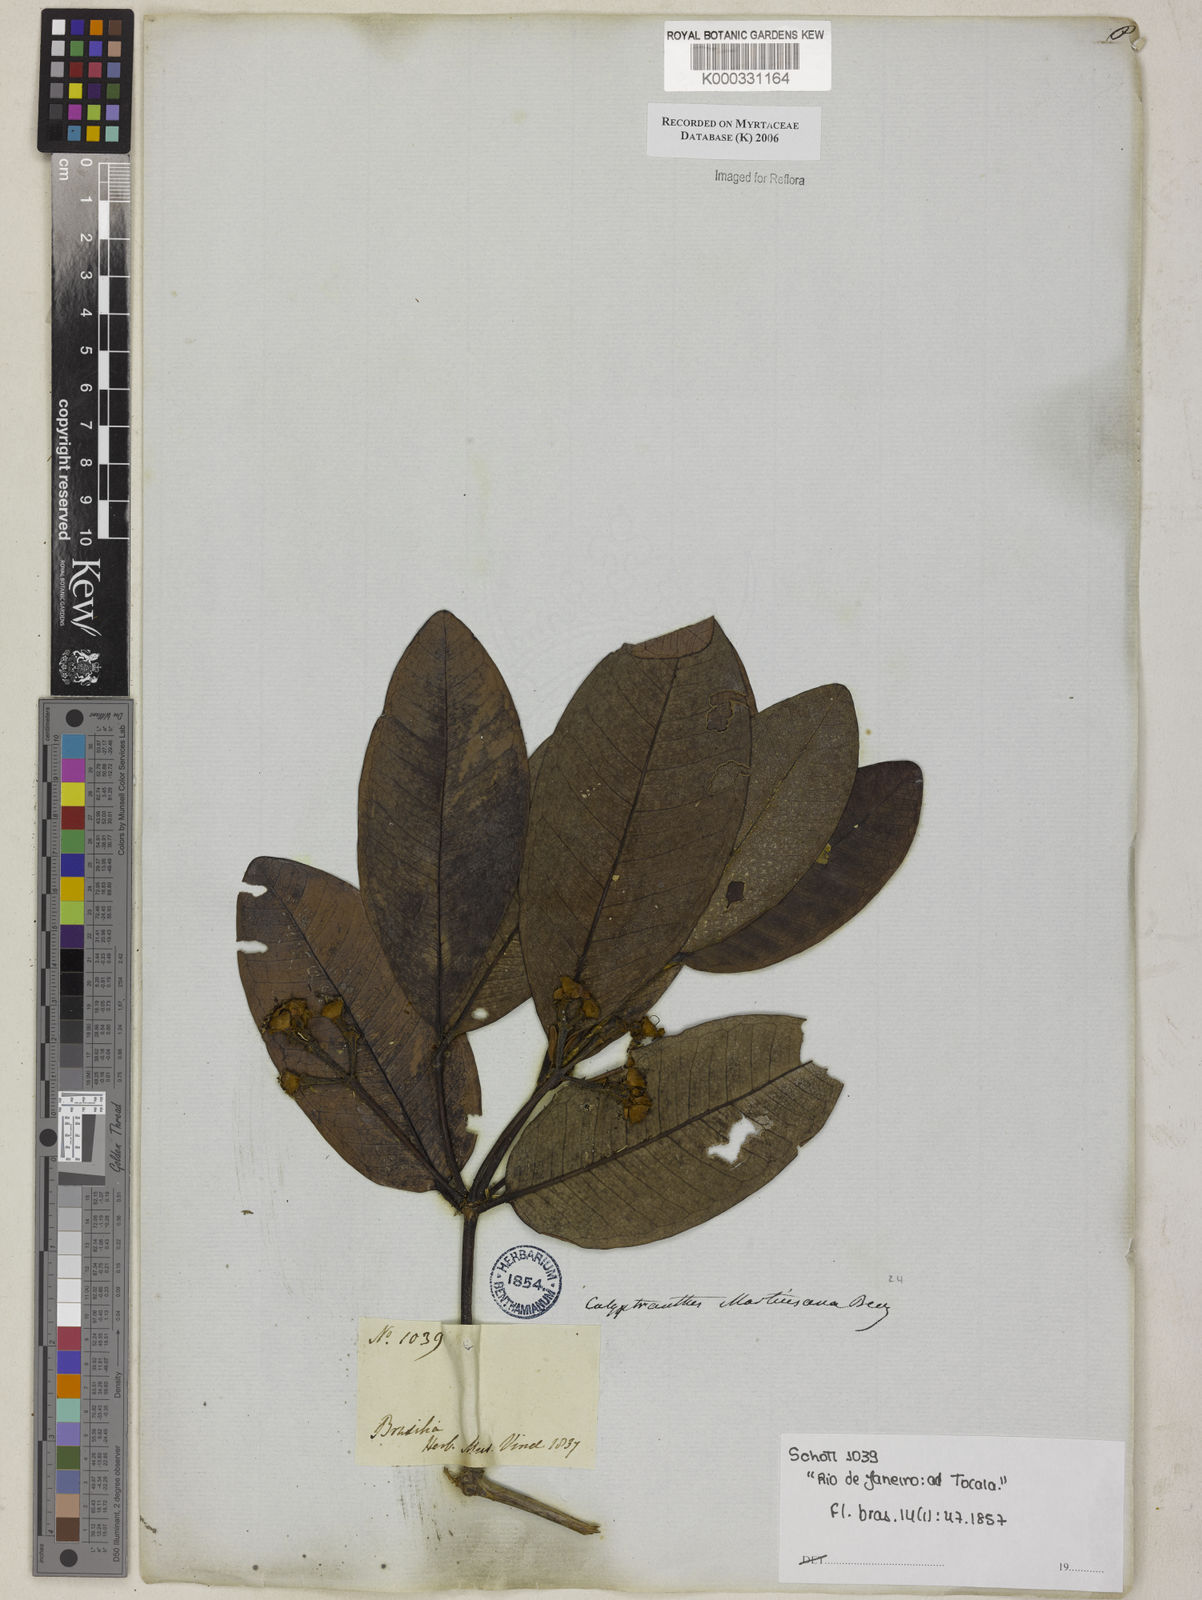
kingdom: Plantae
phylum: Tracheophyta
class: Magnoliopsida
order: Myrtales
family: Myrtaceae
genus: Myrcia
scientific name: Myrcia martiusiana
